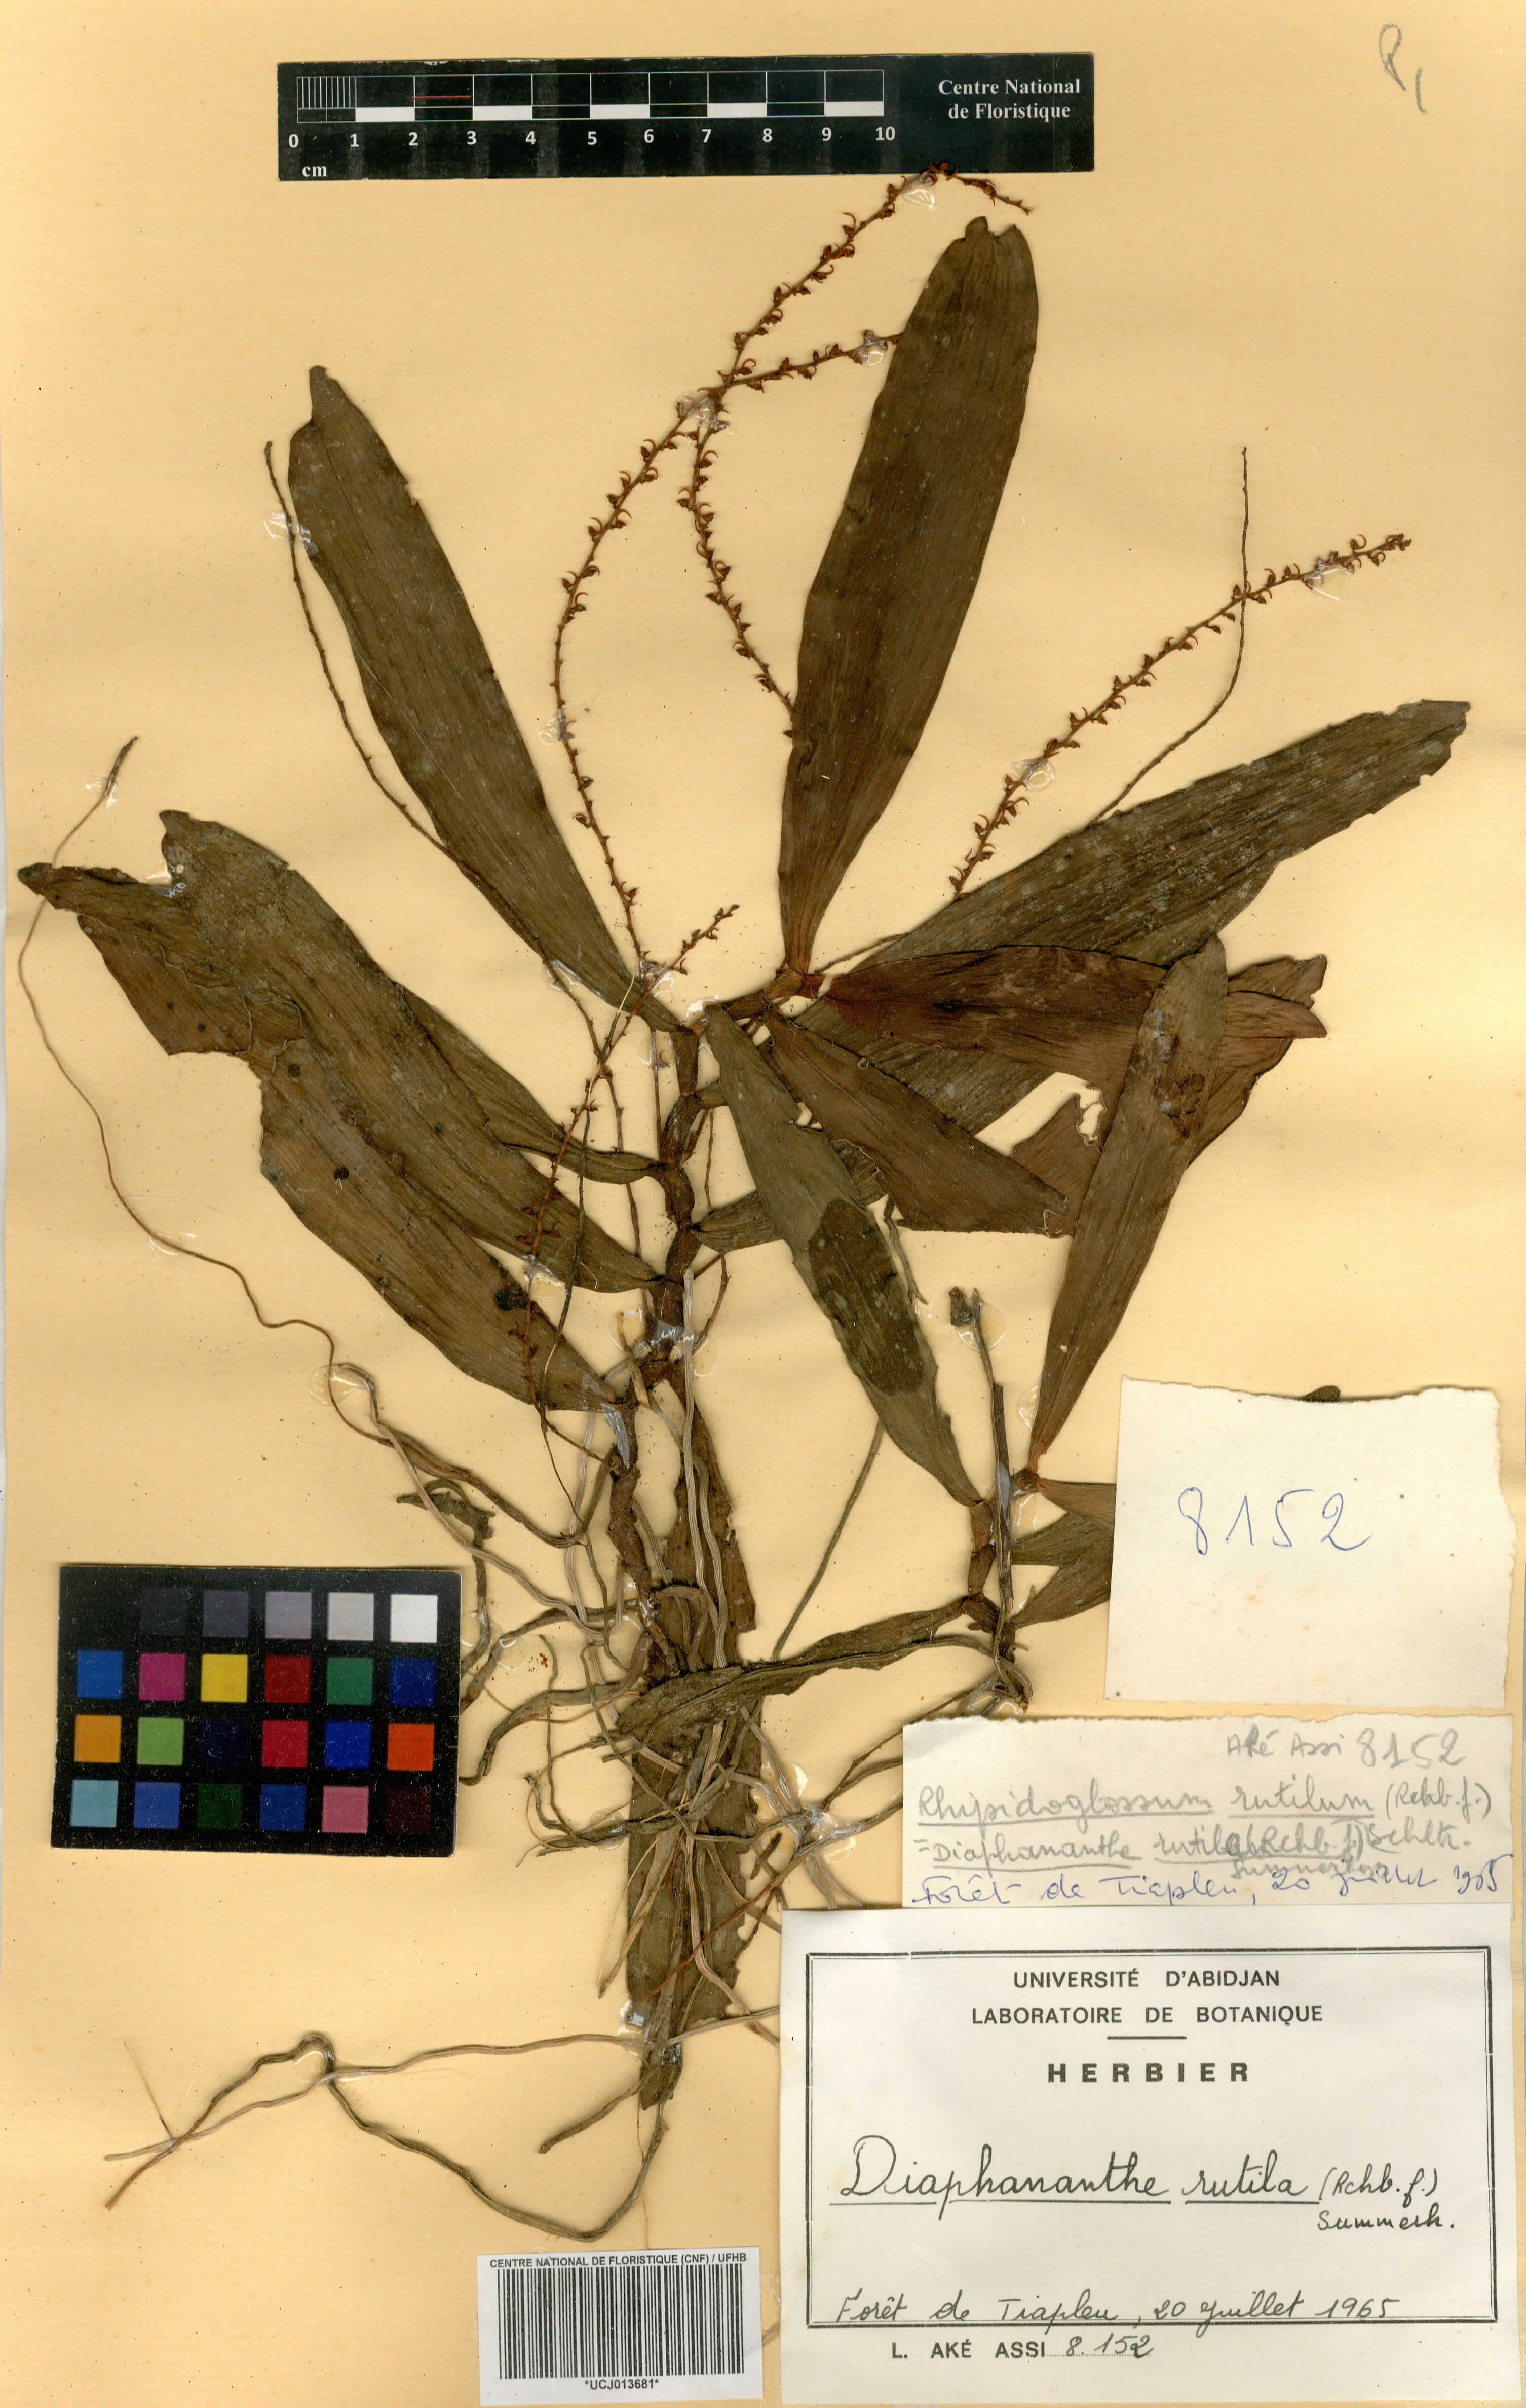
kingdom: Plantae
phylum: Tracheophyta
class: Liliopsida
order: Asparagales
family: Orchidaceae
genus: Rhipidoglossum
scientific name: Rhipidoglossum rutilum
